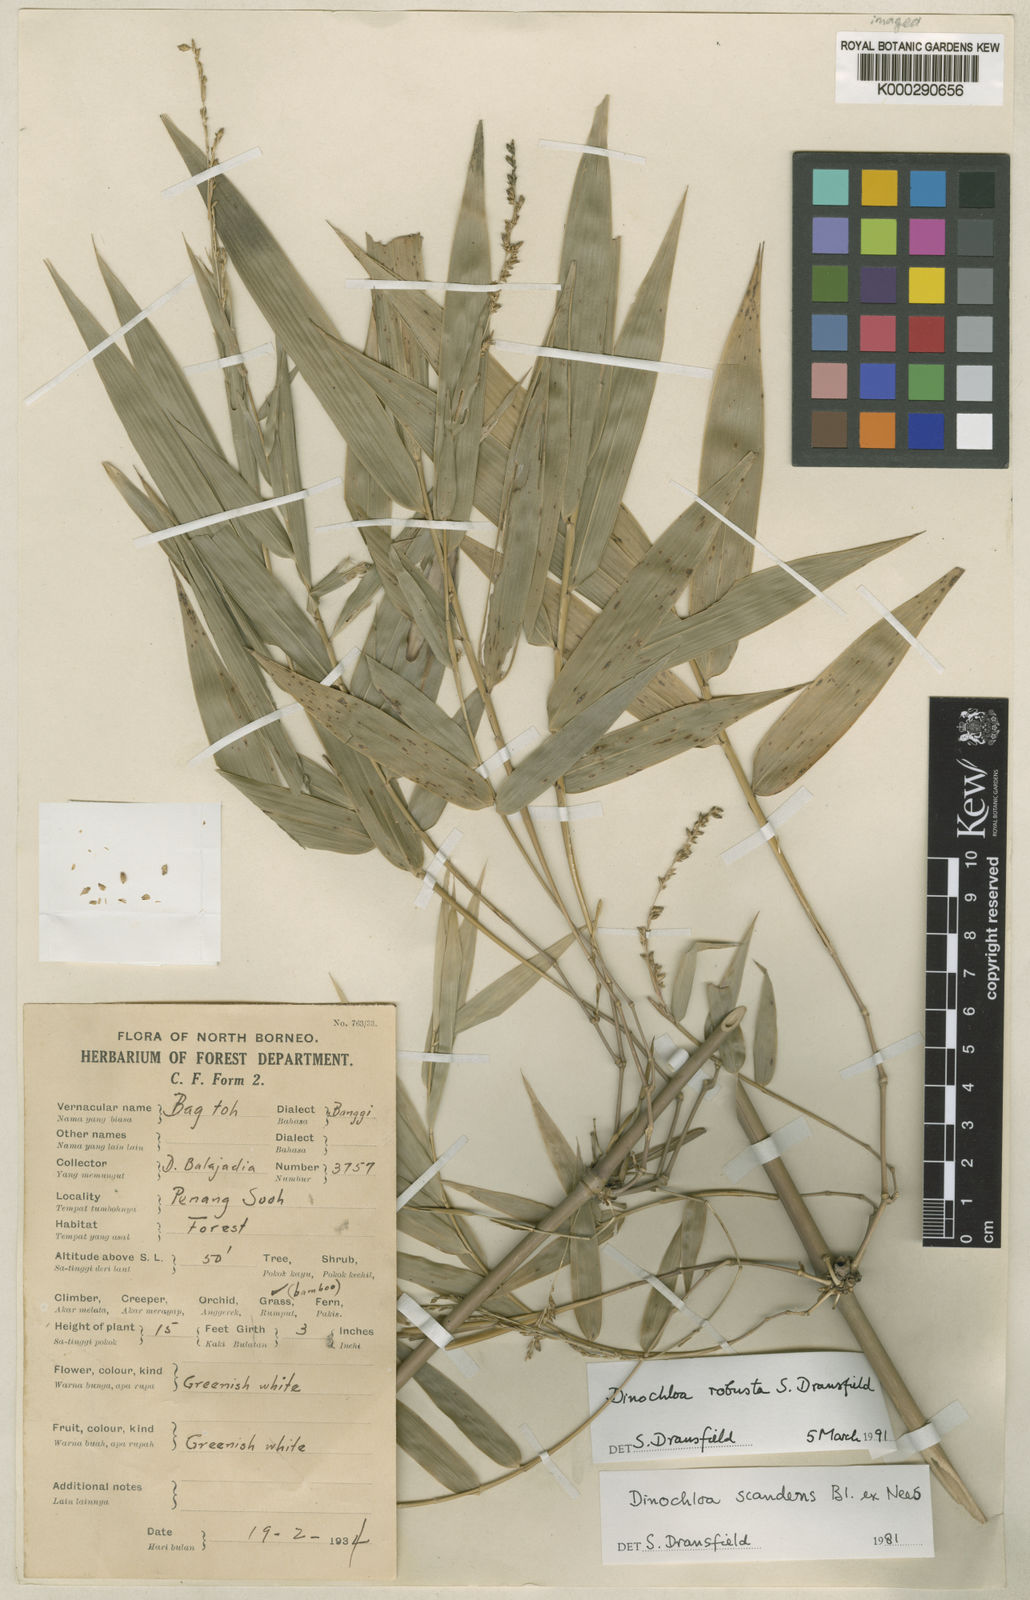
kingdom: Plantae
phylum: Tracheophyta
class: Liliopsida
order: Poales
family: Poaceae
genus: Dinochloa
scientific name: Dinochloa robusta
